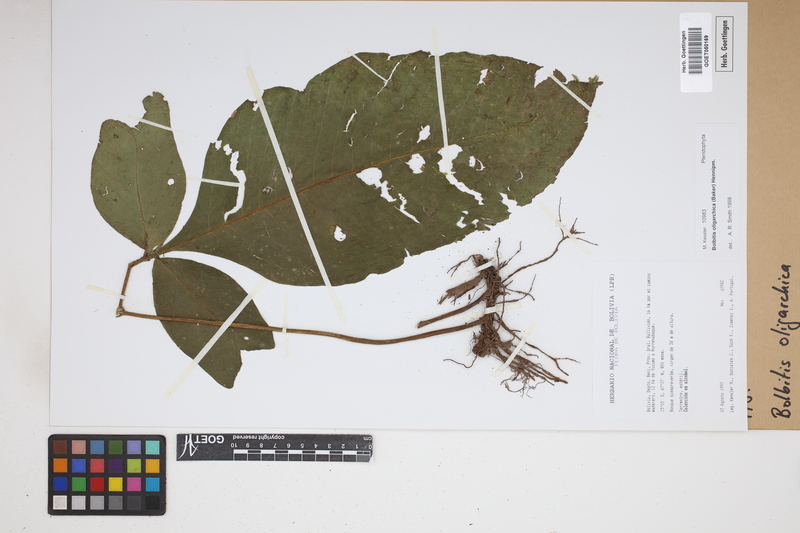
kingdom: Plantae
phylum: Tracheophyta
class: Polypodiopsida
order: Polypodiales
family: Dryopteridaceae
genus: Mickelia
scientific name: Mickelia oligarchica
